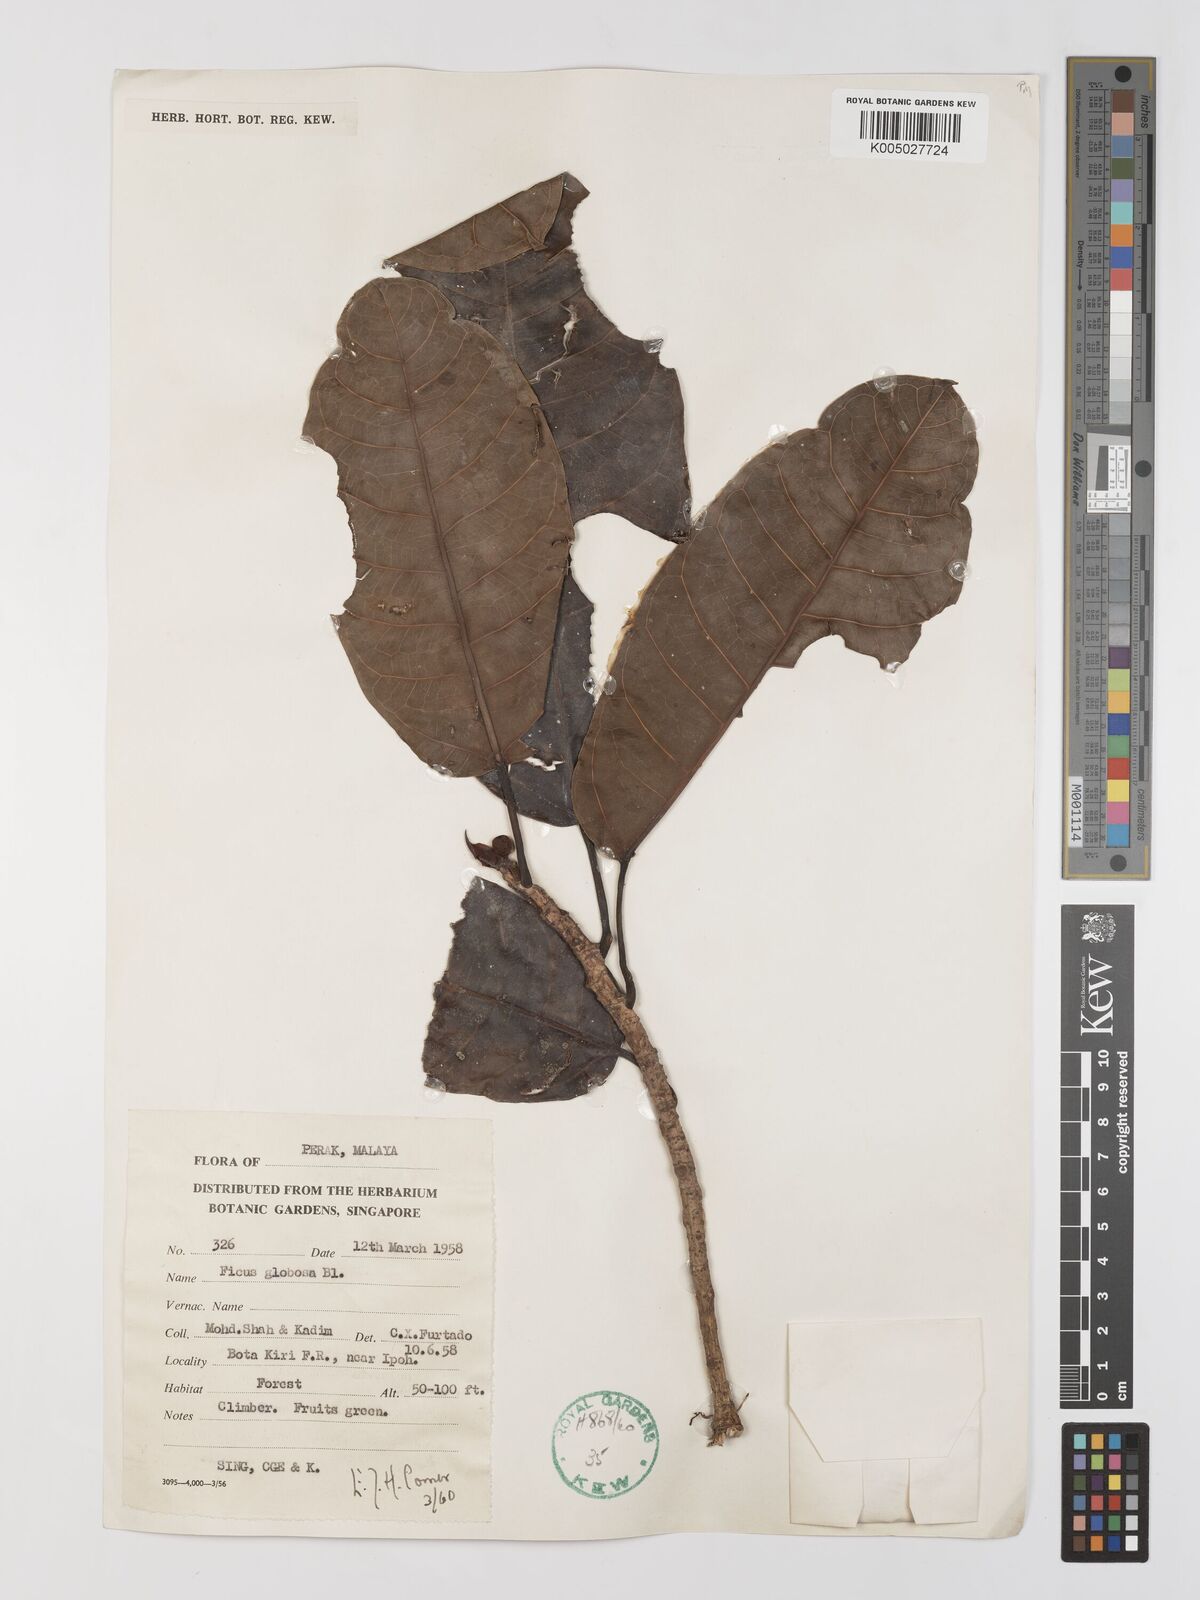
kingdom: Plantae
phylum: Tracheophyta
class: Magnoliopsida
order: Rosales
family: Moraceae
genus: Ficus
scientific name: Ficus
